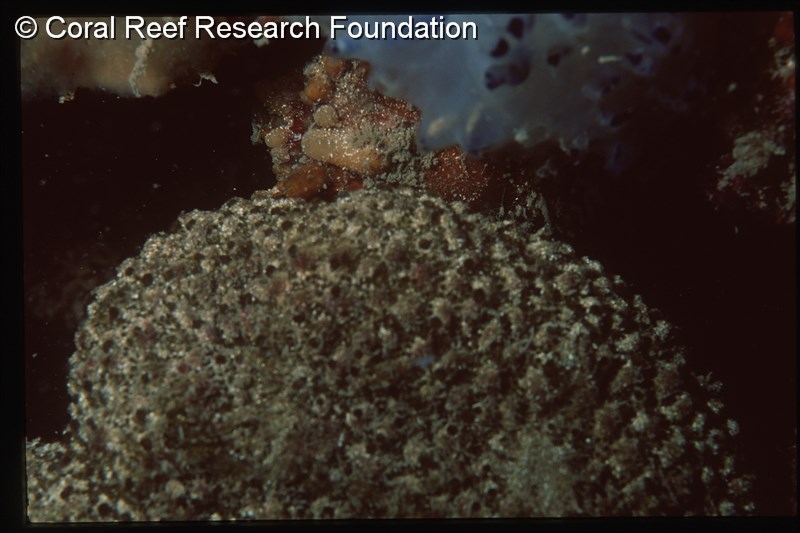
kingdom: Animalia
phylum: Chordata
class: Ascidiacea
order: Aplousobranchia
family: Polyclinidae
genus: Polyclinum
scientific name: Polyclinum isipingense
